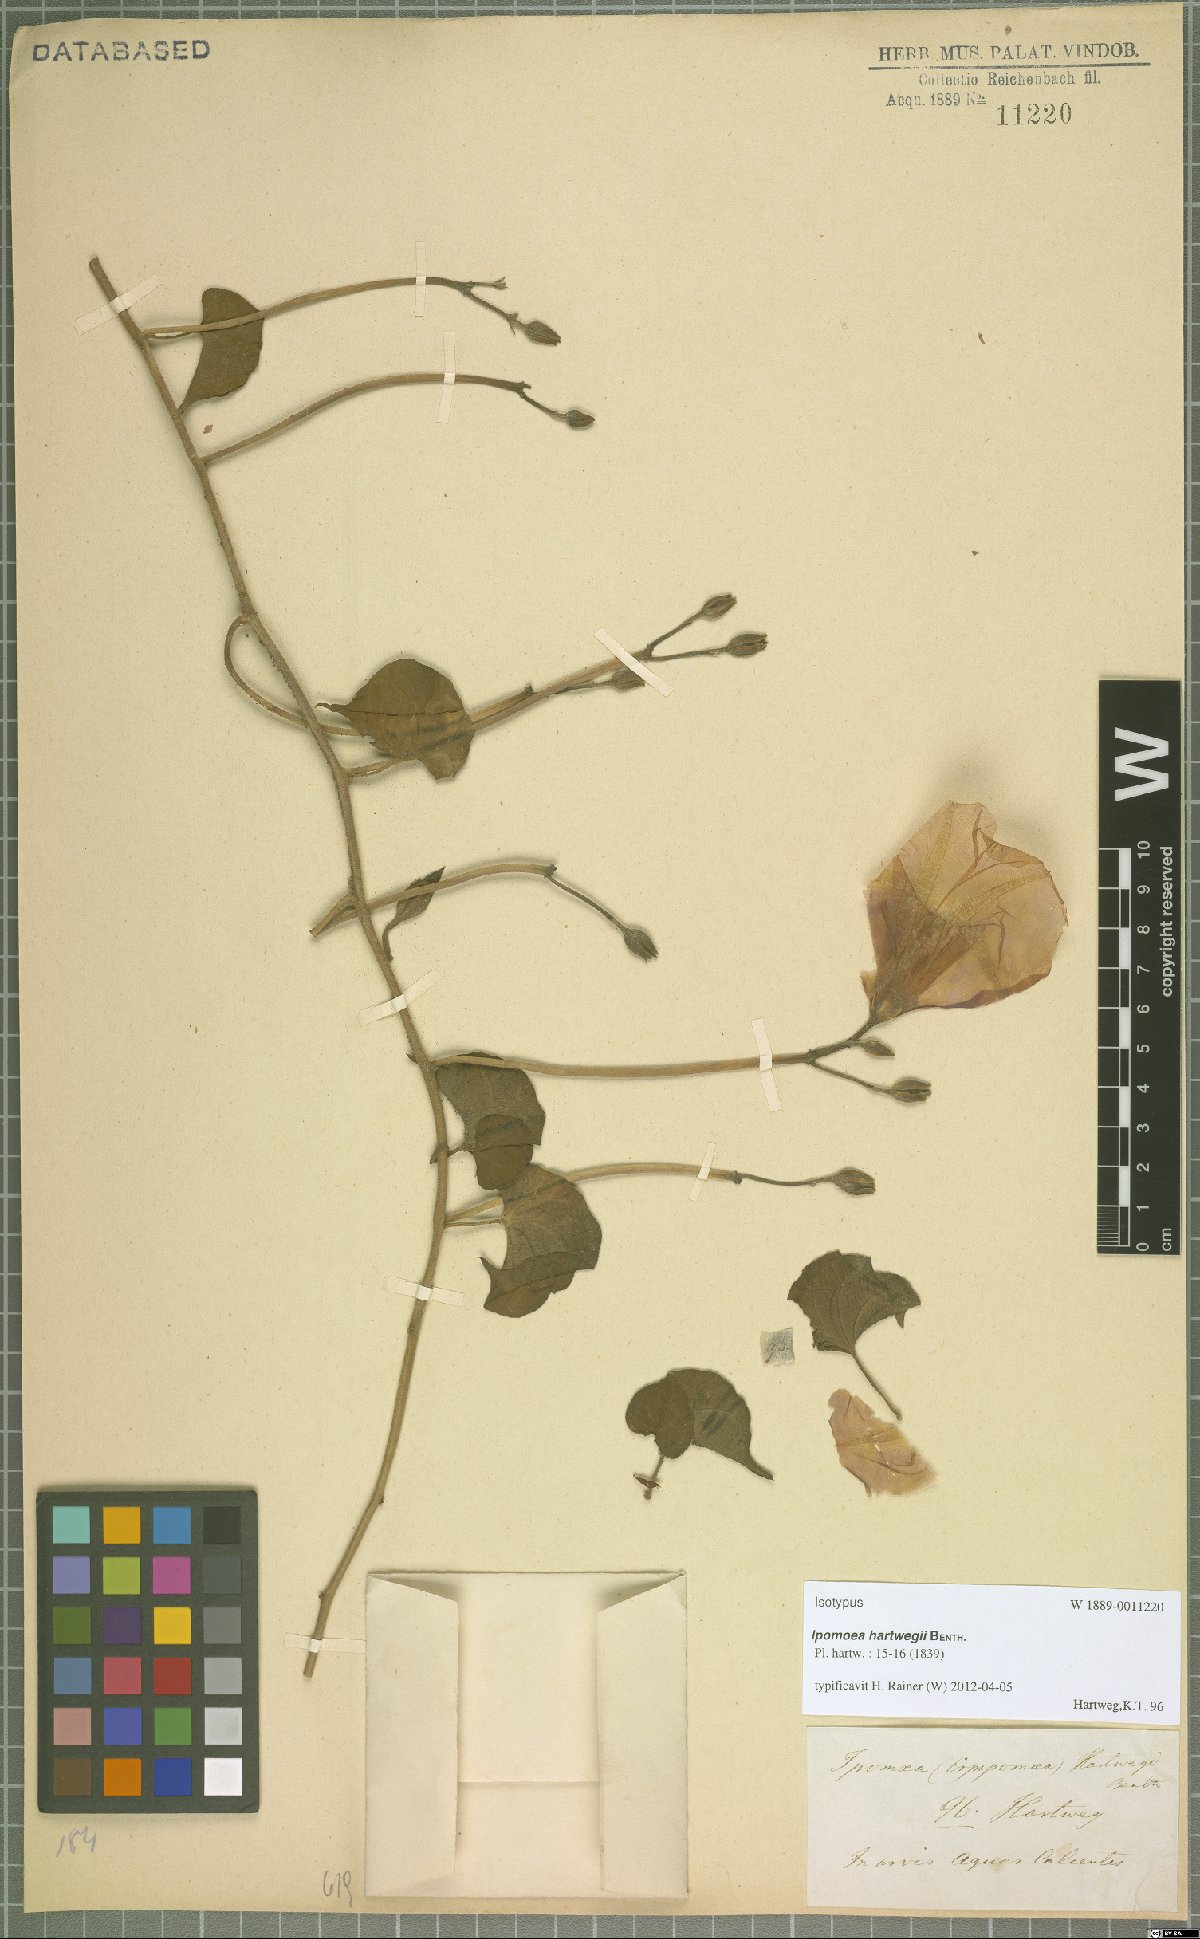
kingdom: Plantae
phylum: Tracheophyta
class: Magnoliopsida
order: Solanales
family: Convolvulaceae
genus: Ipomoea
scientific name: Ipomoea hartwegii
